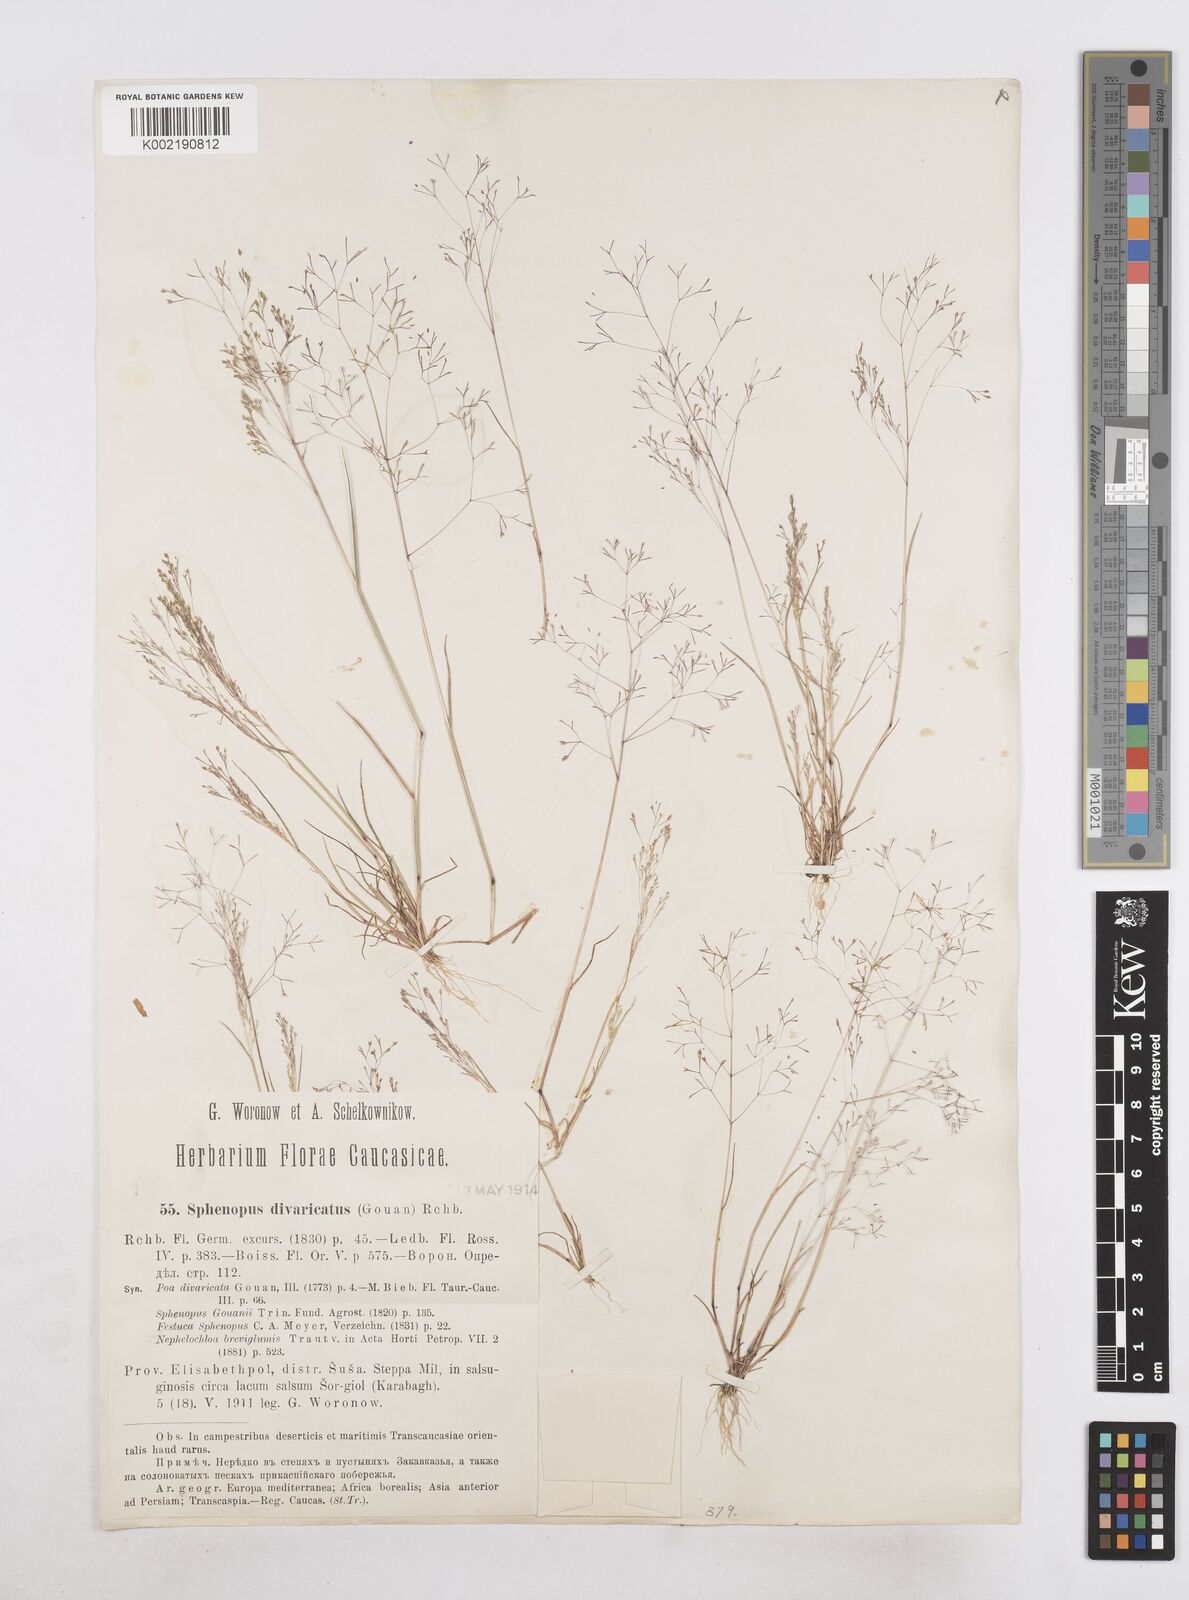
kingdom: Plantae
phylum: Tracheophyta
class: Liliopsida
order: Poales
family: Poaceae
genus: Sphenopus
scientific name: Sphenopus divaricatus
